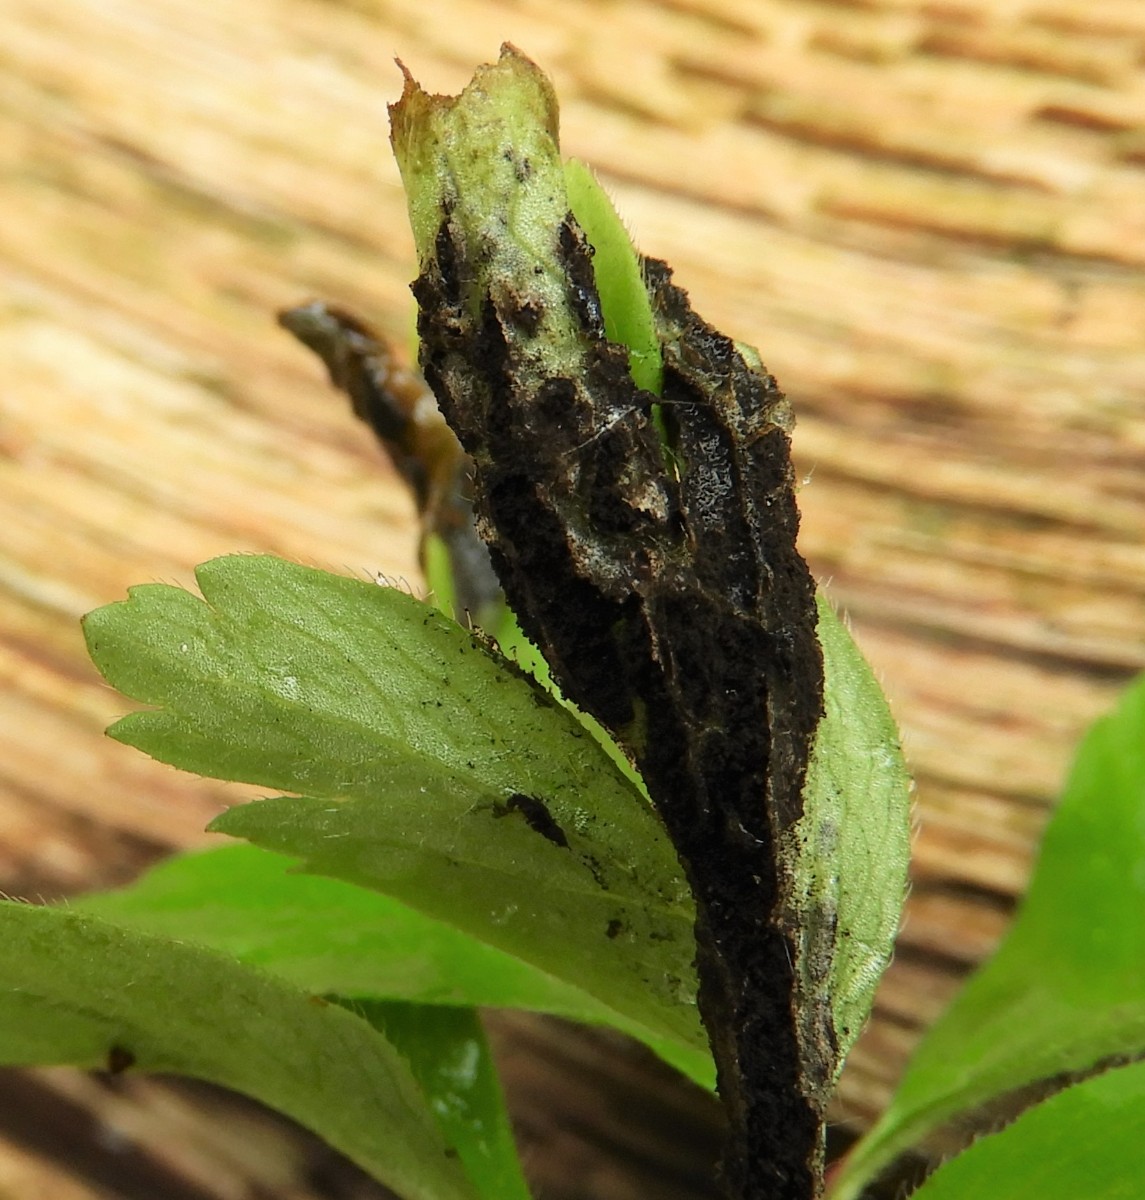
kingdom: Fungi
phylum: Basidiomycota
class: Ustilaginomycetes
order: Urocystidales
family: Urocystidaceae
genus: Urocystis
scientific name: Urocystis anemones
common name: anemone-brand
